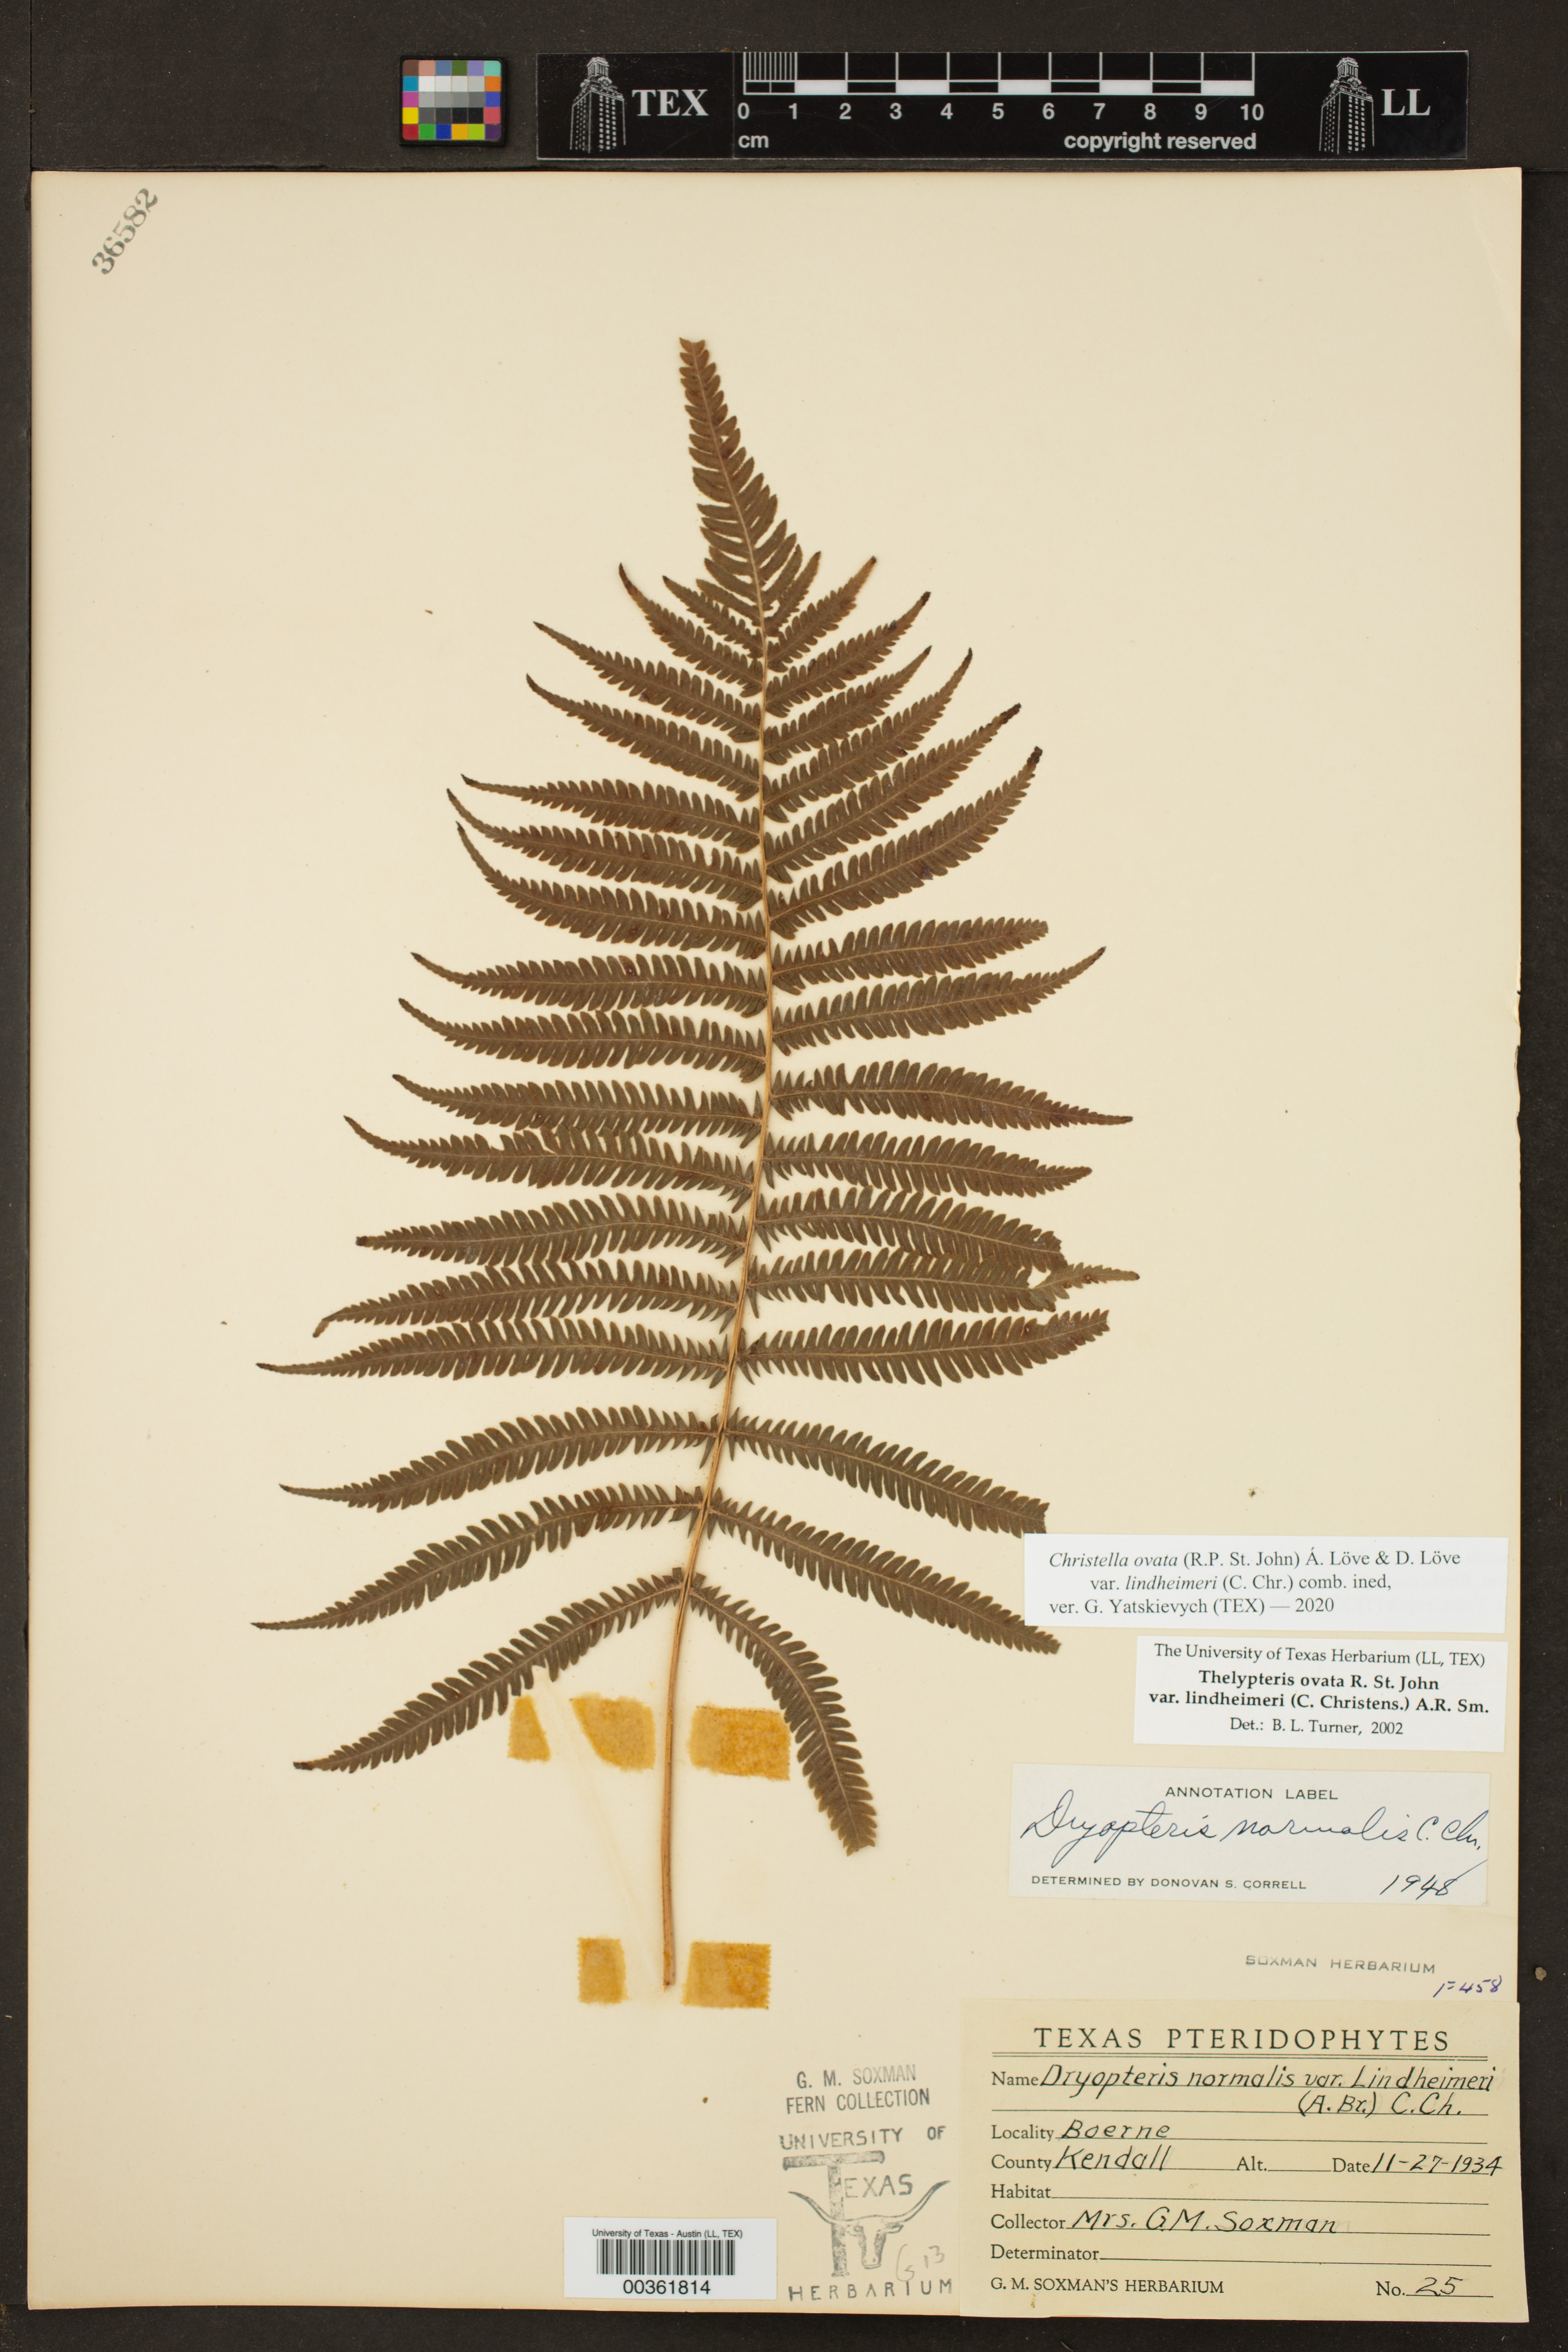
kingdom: Plantae
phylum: Tracheophyta
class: Polypodiopsida
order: Polypodiales
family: Thelypteridaceae
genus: Pelazoneuron
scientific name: Pelazoneuron ovatum
